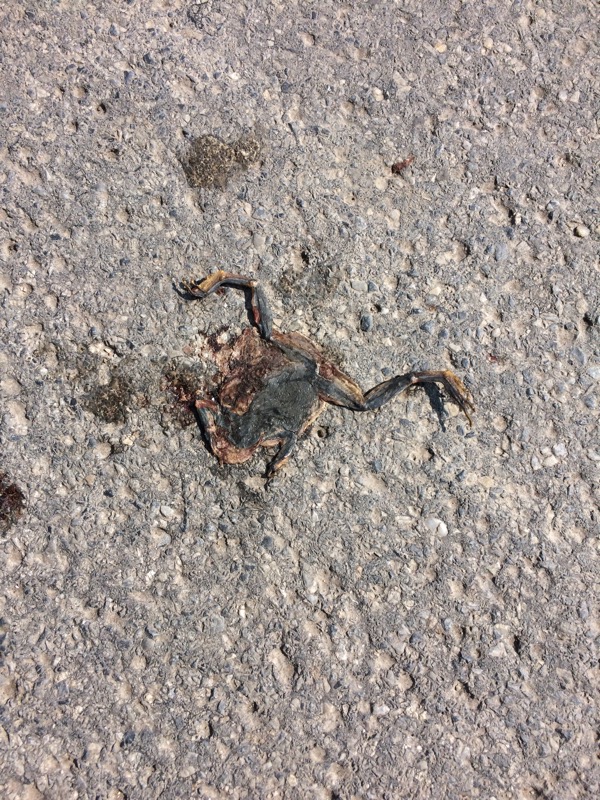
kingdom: Animalia
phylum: Chordata
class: Amphibia
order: Anura
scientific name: Anura
